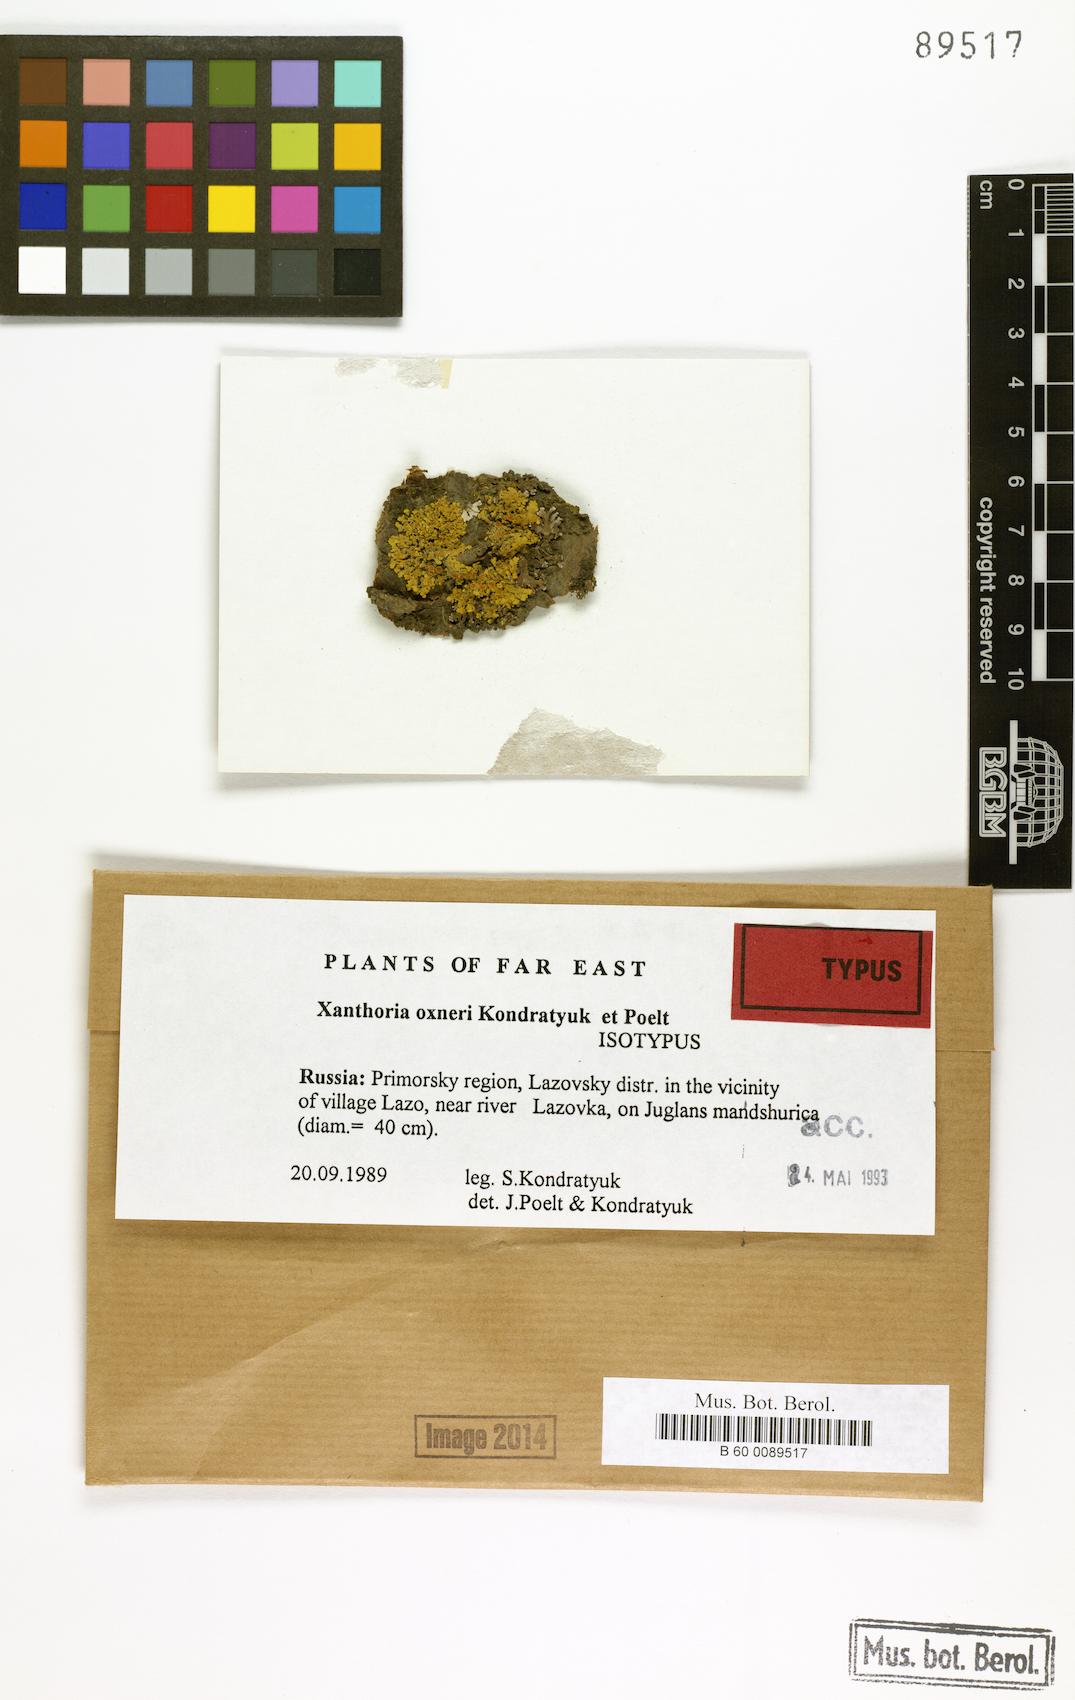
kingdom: Fungi
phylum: Ascomycota
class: Lecanoromycetes
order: Teloschistales
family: Teloschistaceae
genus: Xanthoria
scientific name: Xanthoria
